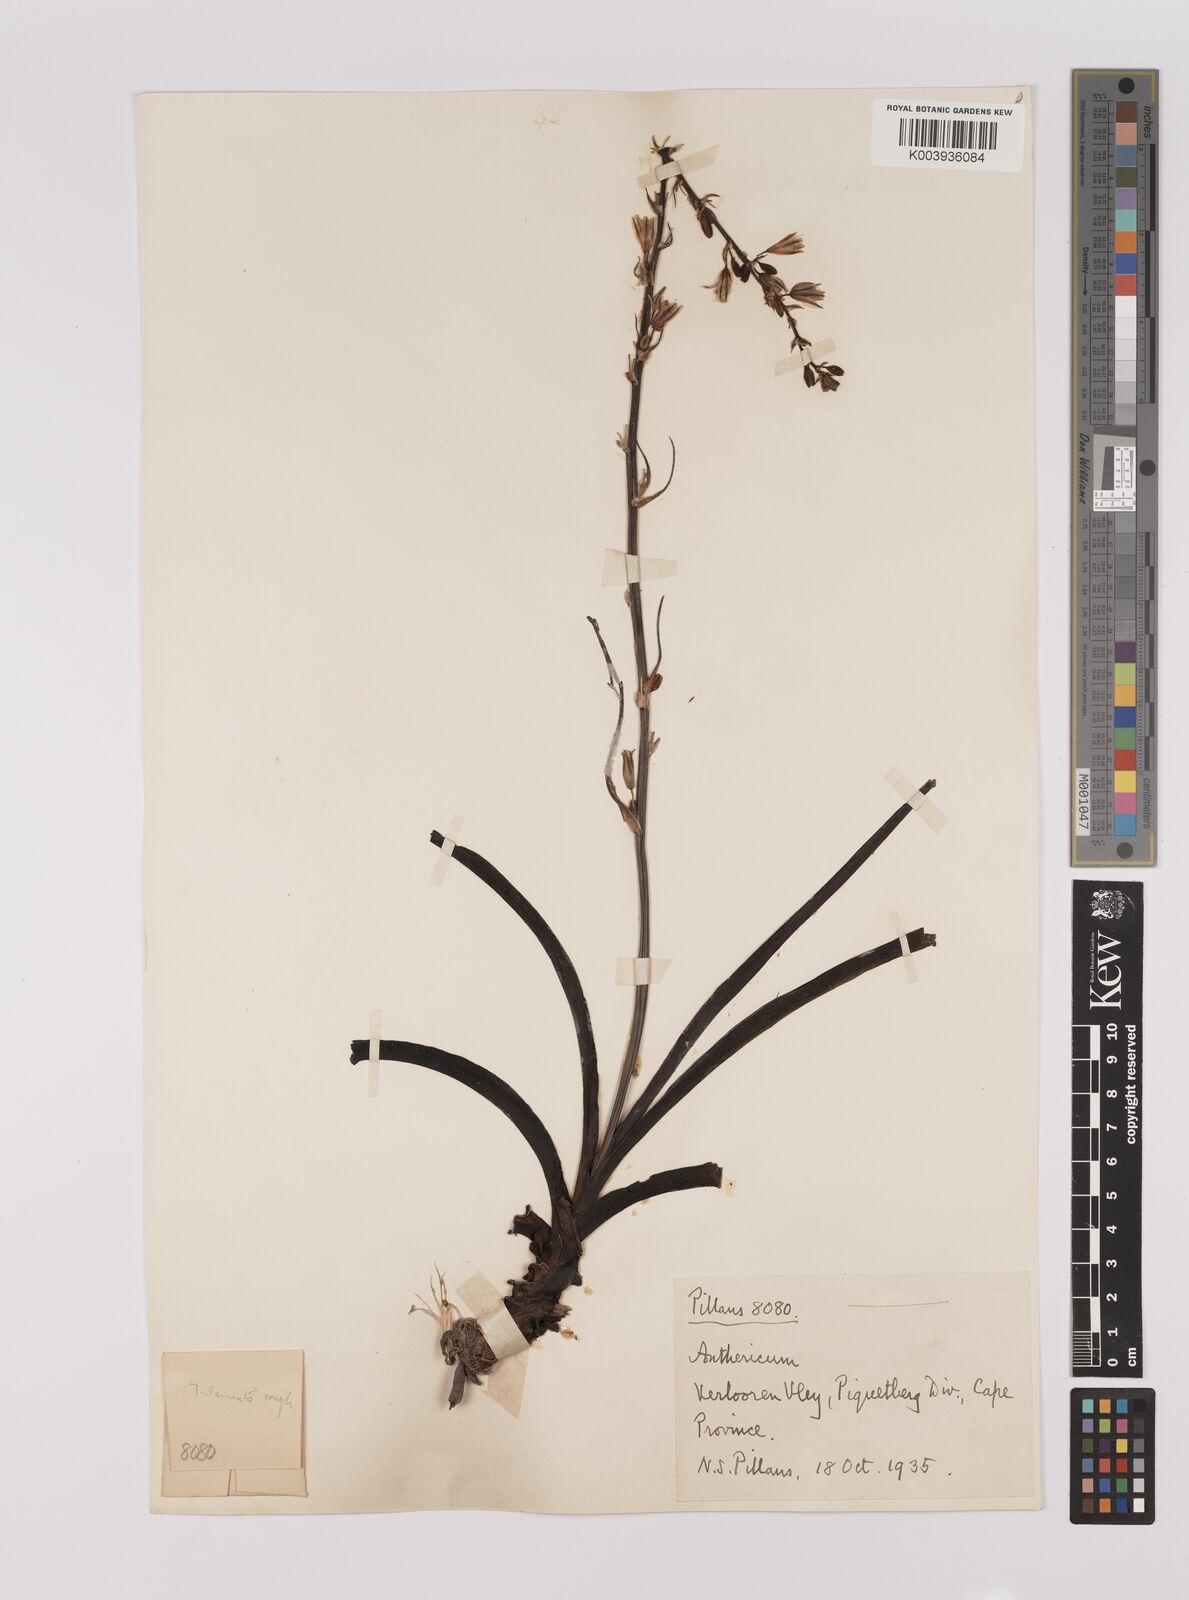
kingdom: Plantae
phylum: Tracheophyta
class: Liliopsida
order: Asparagales
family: Asparagaceae
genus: Chlorophytum
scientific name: Chlorophytum triflorum
